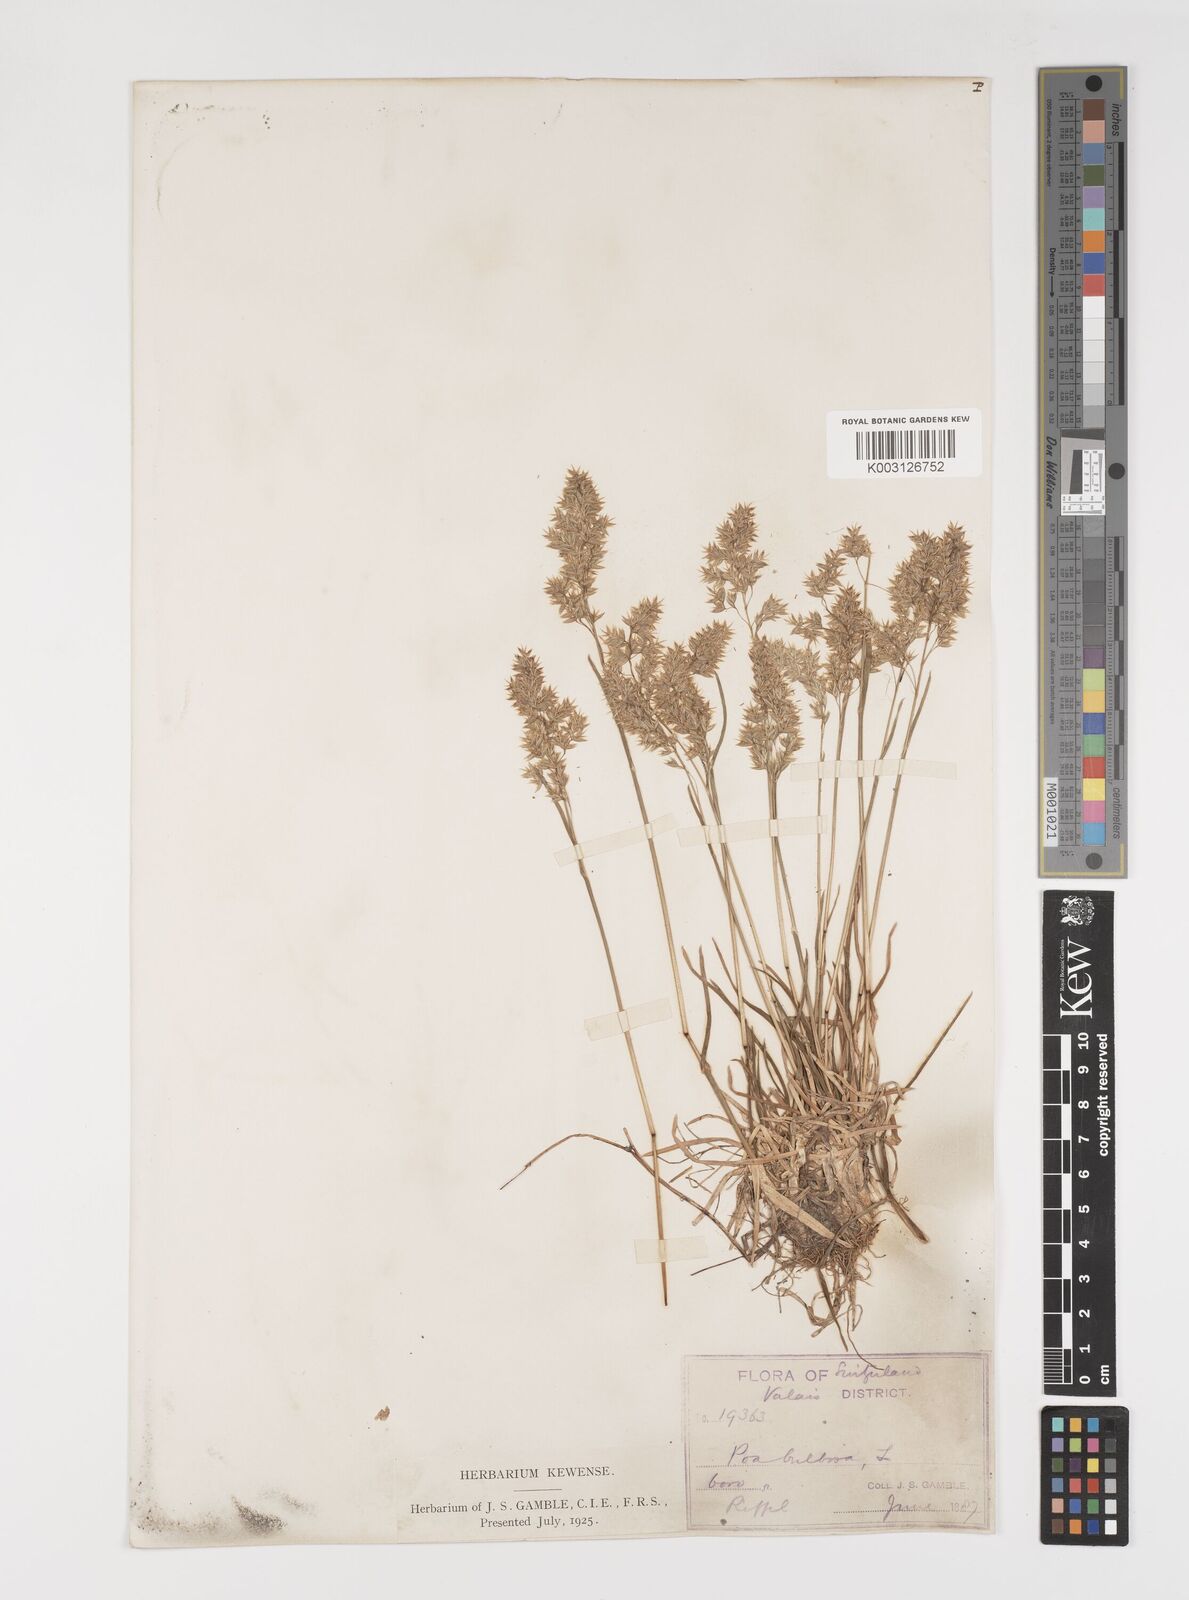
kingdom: Plantae
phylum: Tracheophyta
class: Liliopsida
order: Poales
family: Poaceae
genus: Poa
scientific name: Poa bulbosa
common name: Bulbous bluegrass
